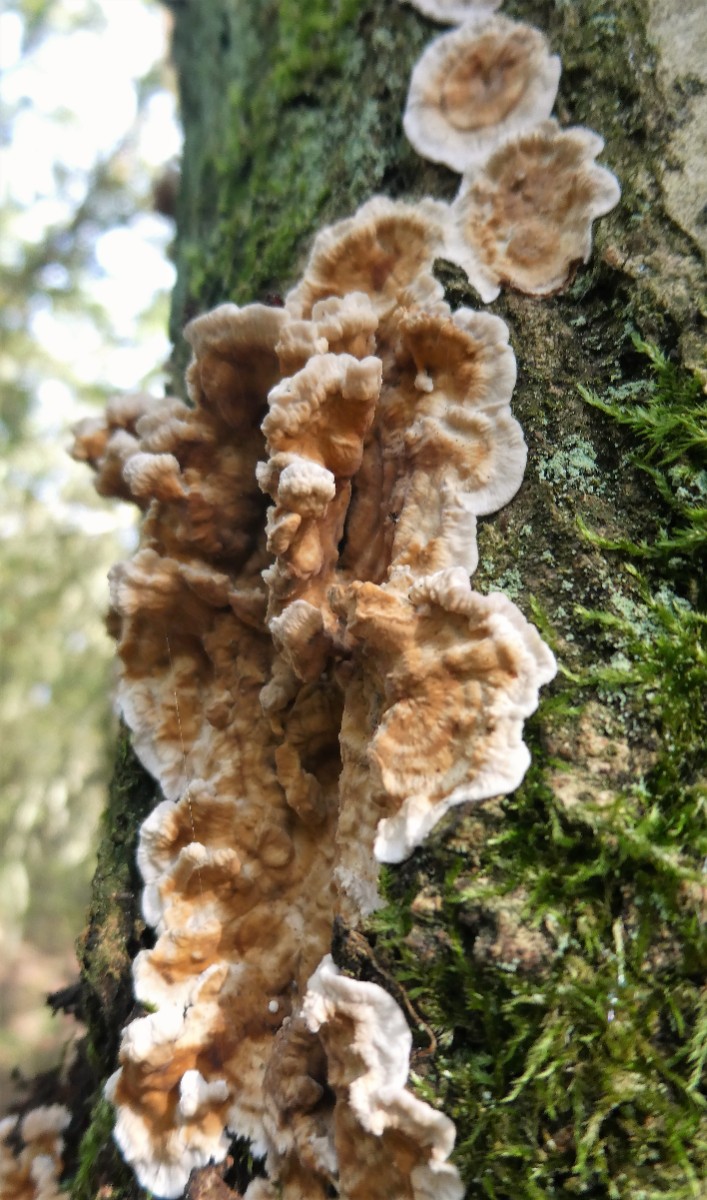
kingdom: Fungi
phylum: Basidiomycota
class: Agaricomycetes
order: Russulales
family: Stereaceae
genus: Stereum
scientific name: Stereum gausapatum
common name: tynd lædersvamp
